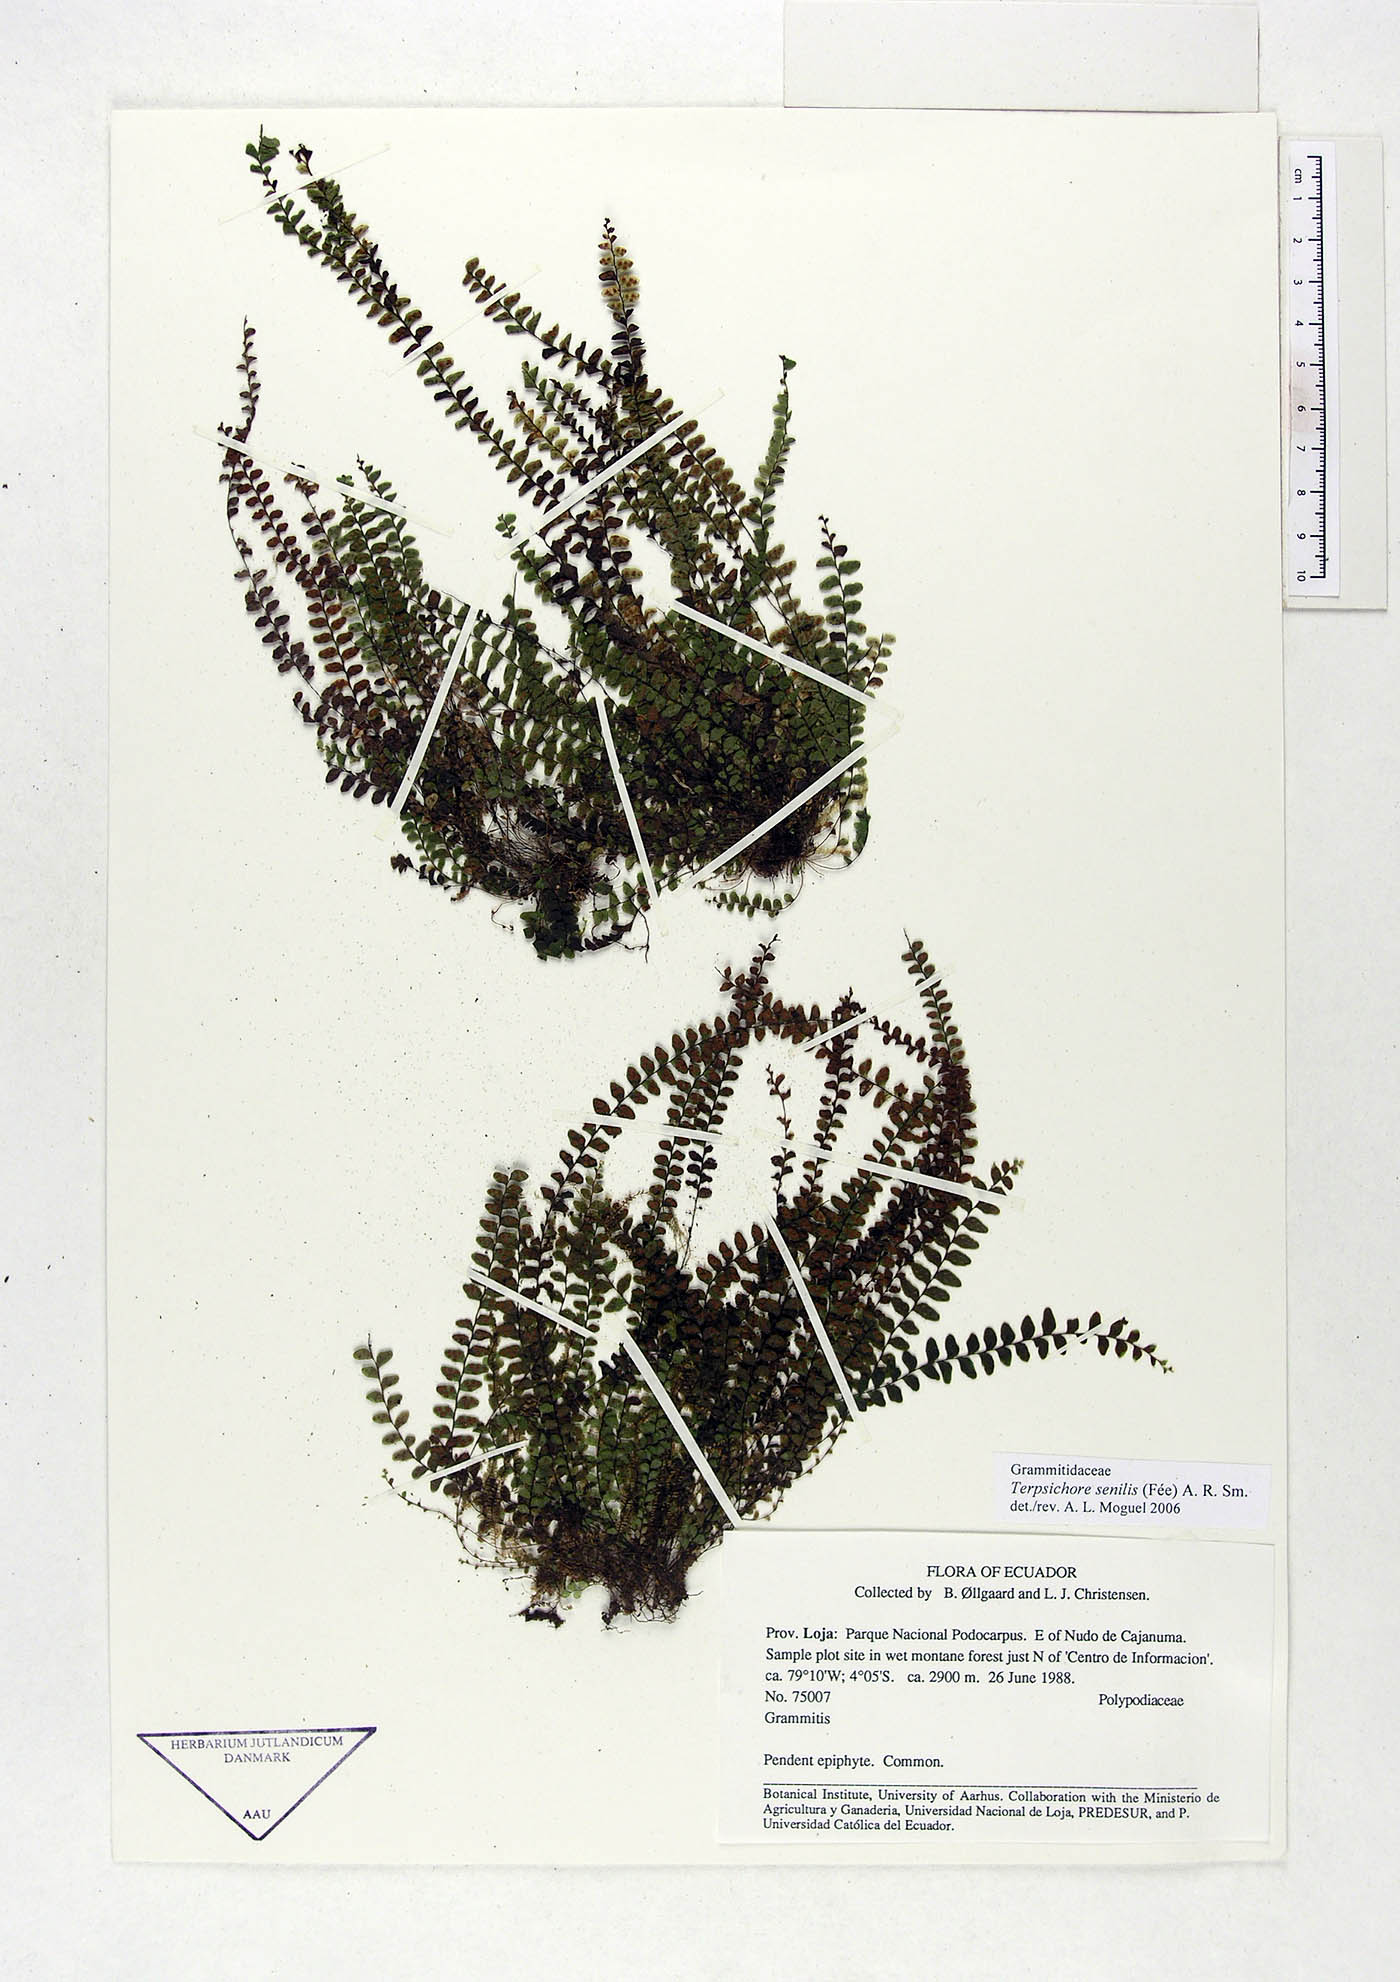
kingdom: Plantae
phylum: Tracheophyta
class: Polypodiopsida
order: Polypodiales
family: Polypodiaceae
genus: Alansmia
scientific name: Alansmia senilis
